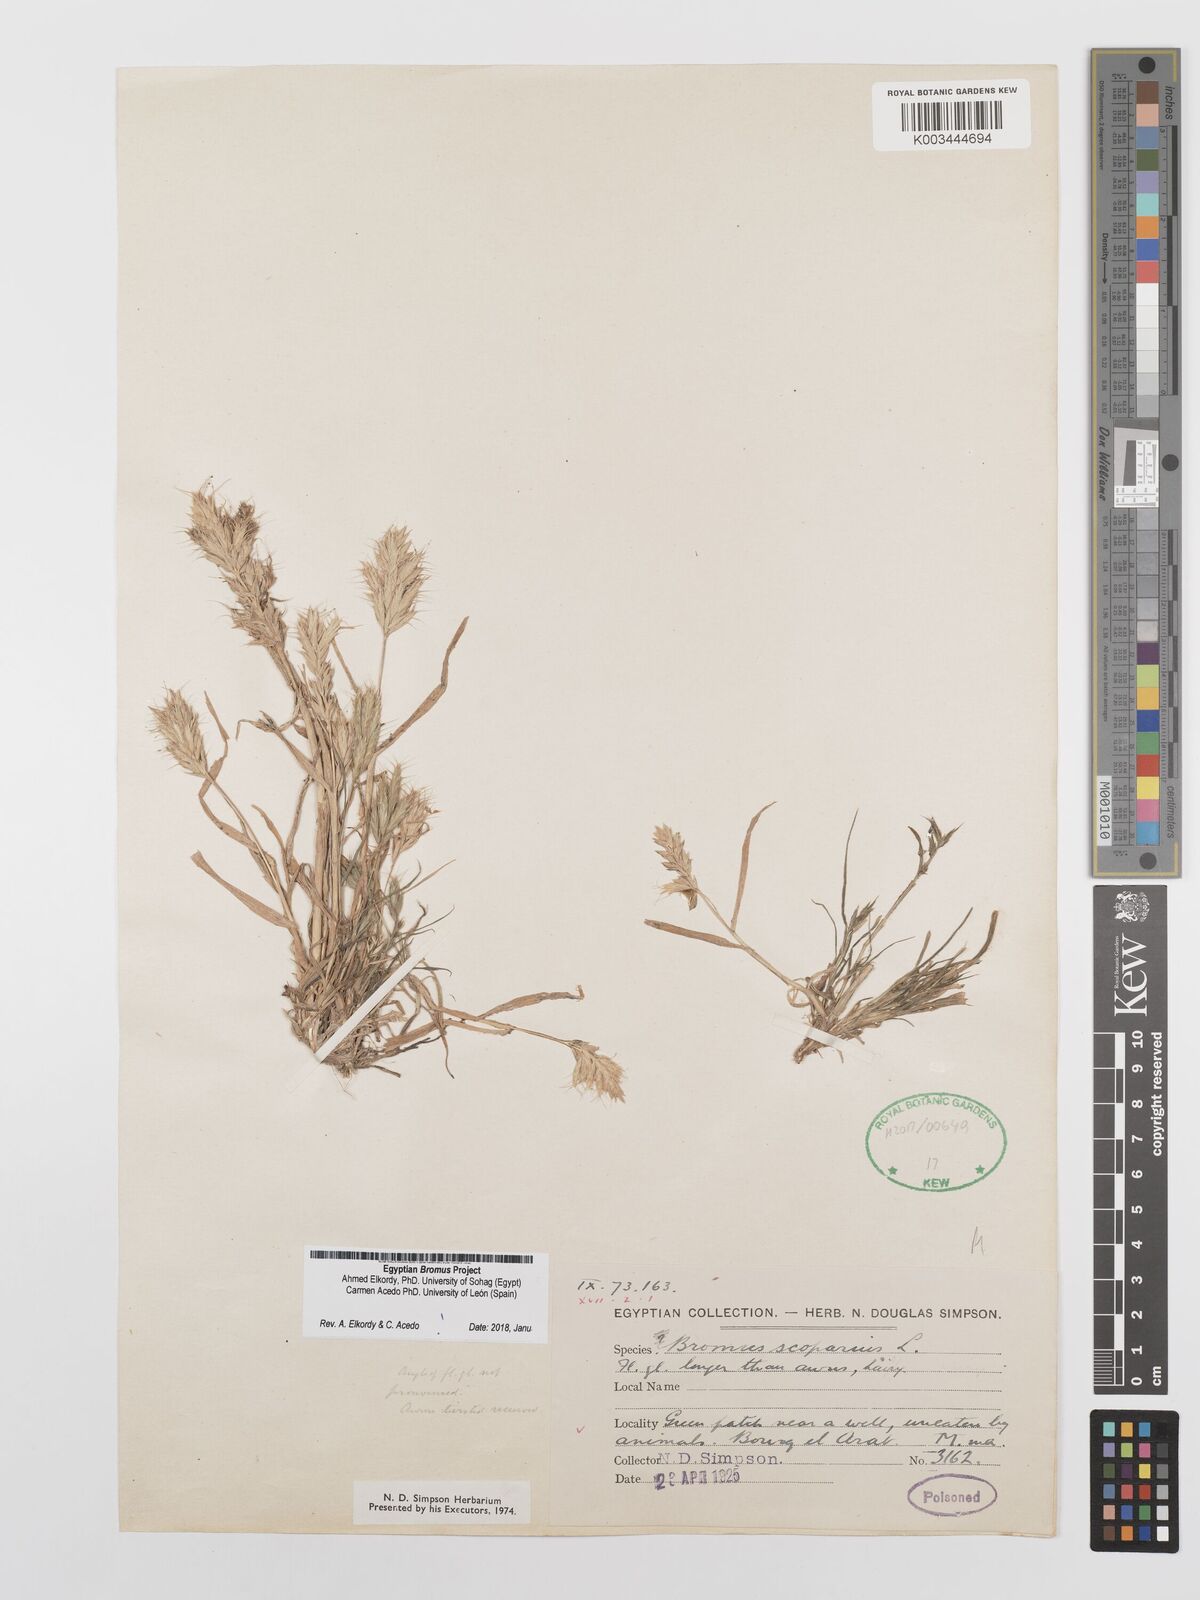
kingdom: Plantae
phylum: Tracheophyta
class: Liliopsida
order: Poales
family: Poaceae
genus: Bromus
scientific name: Bromus scoparius
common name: Broom brome
